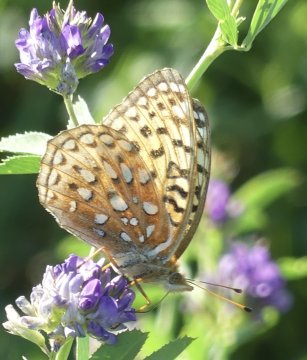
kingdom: Animalia
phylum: Arthropoda
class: Insecta
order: Lepidoptera
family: Nymphalidae
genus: Speyeria
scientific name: Speyeria atlantis
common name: Northwestern Fritillary
